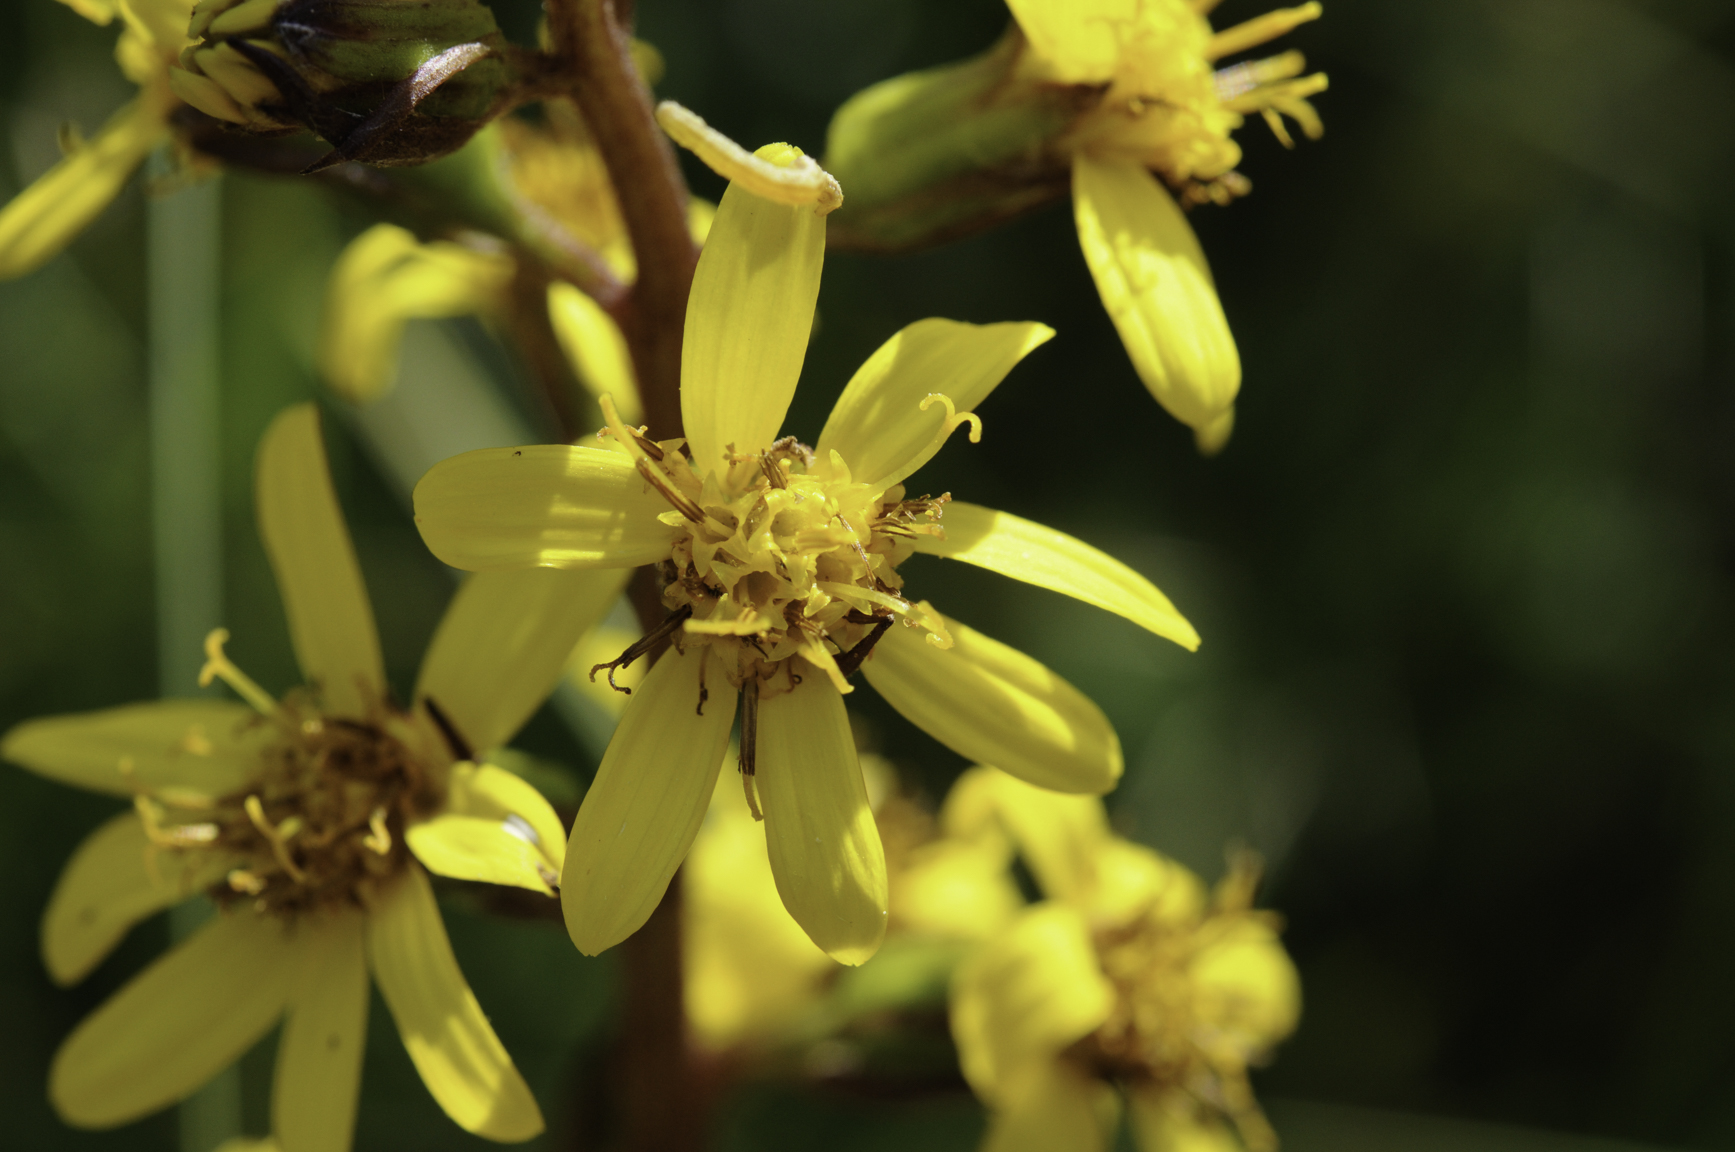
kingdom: Plantae
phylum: Tracheophyta
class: Magnoliopsida
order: Asterales
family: Asteraceae
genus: Ligularia
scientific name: Ligularia sibirica
